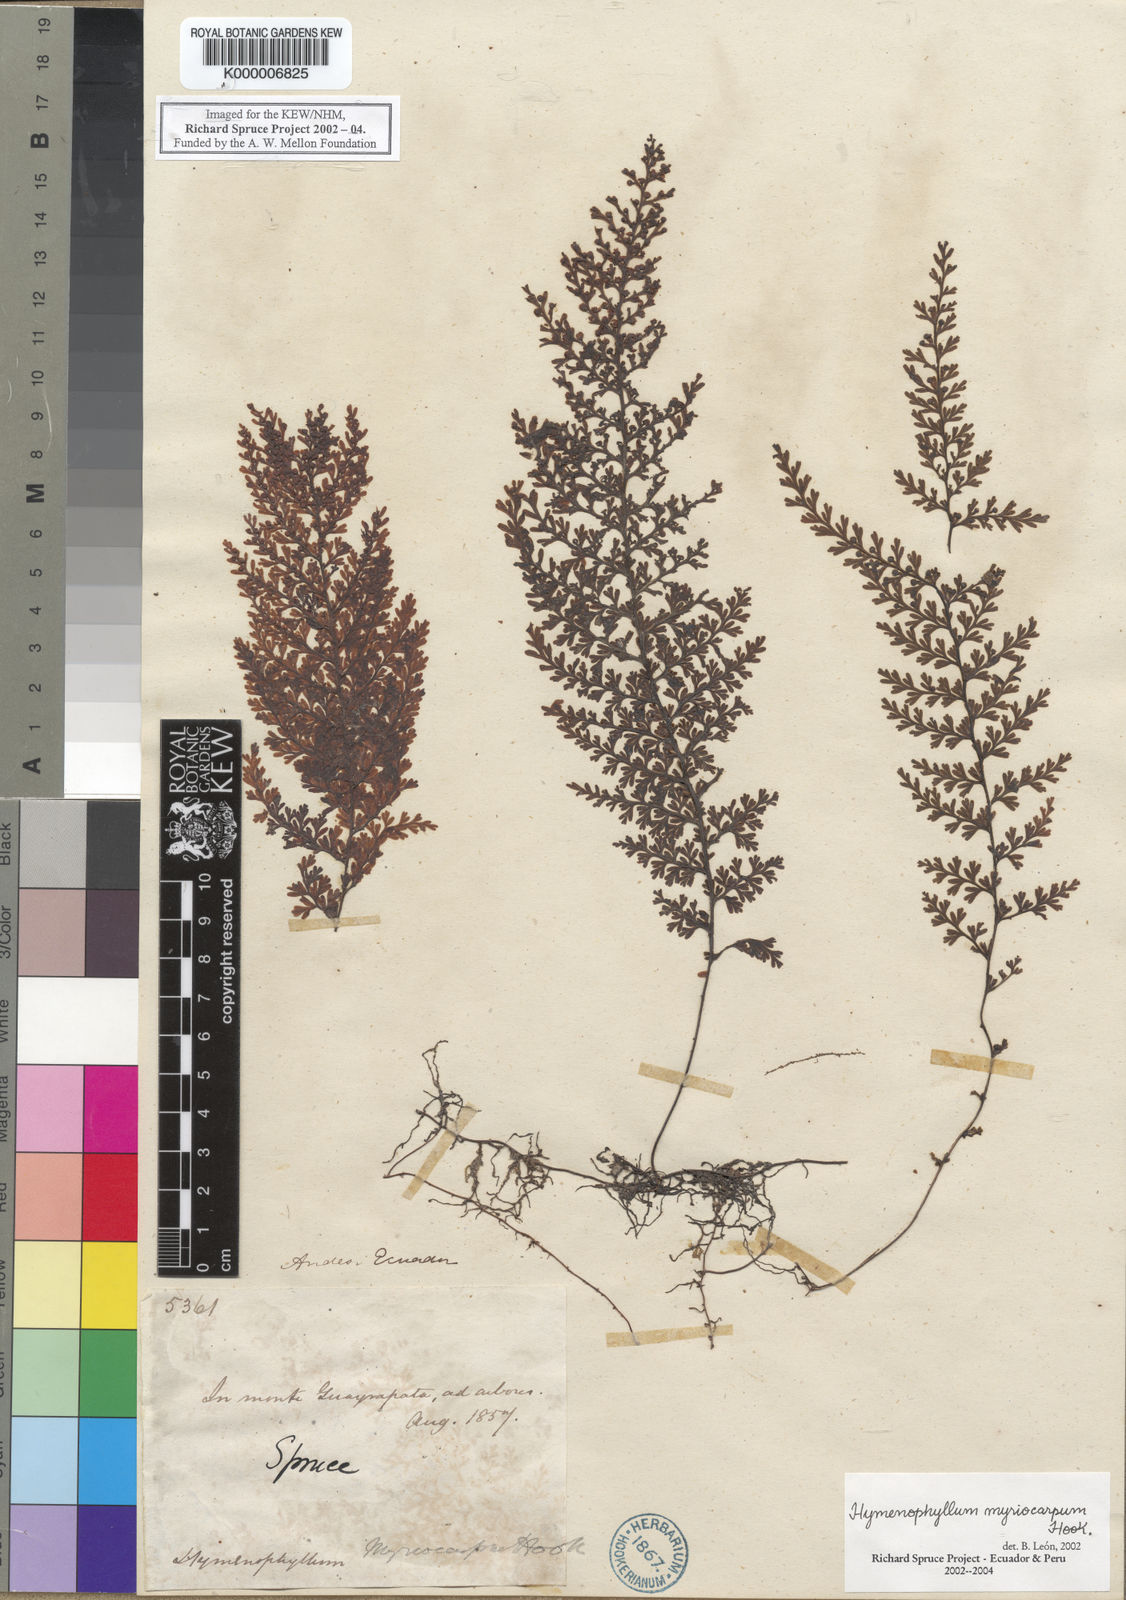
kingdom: Plantae
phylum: Tracheophyta
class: Polypodiopsida
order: Hymenophyllales
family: Hymenophyllaceae
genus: Hymenophyllum
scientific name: Hymenophyllum myriocarpum
